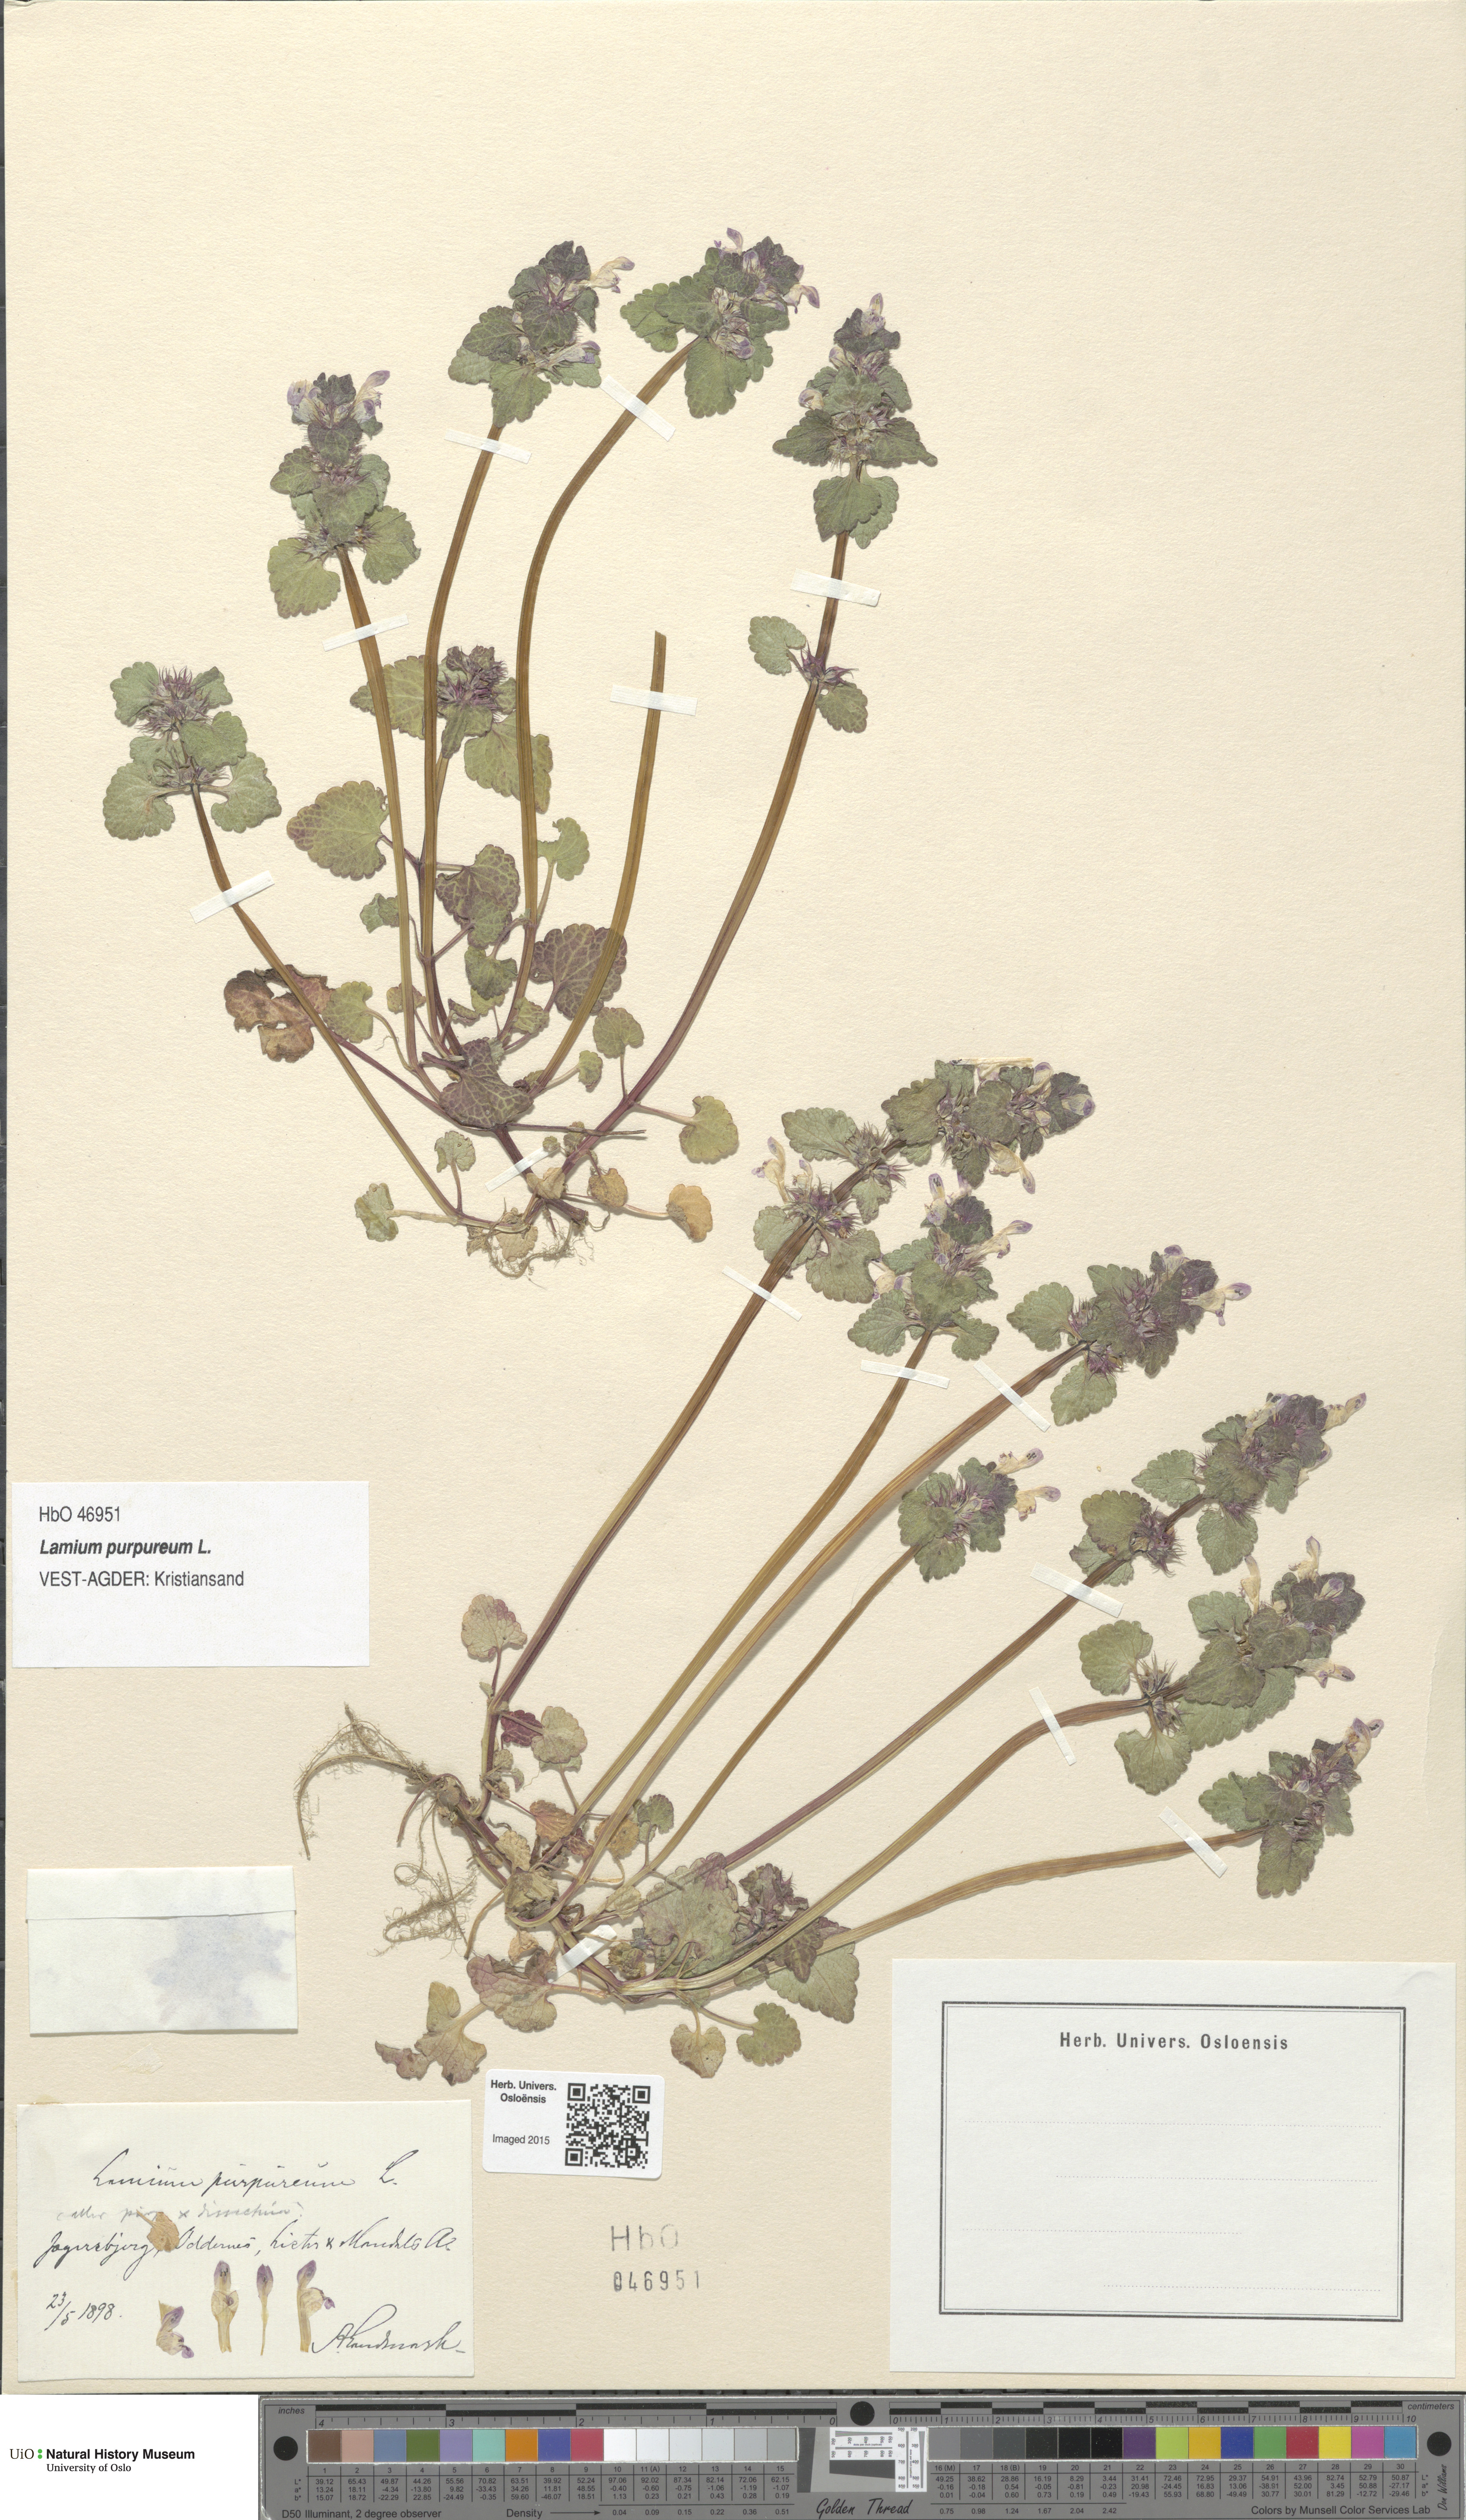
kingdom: Plantae
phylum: Tracheophyta
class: Magnoliopsida
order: Lamiales
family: Lamiaceae
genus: Lamium
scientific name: Lamium purpureum
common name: Red dead-nettle
